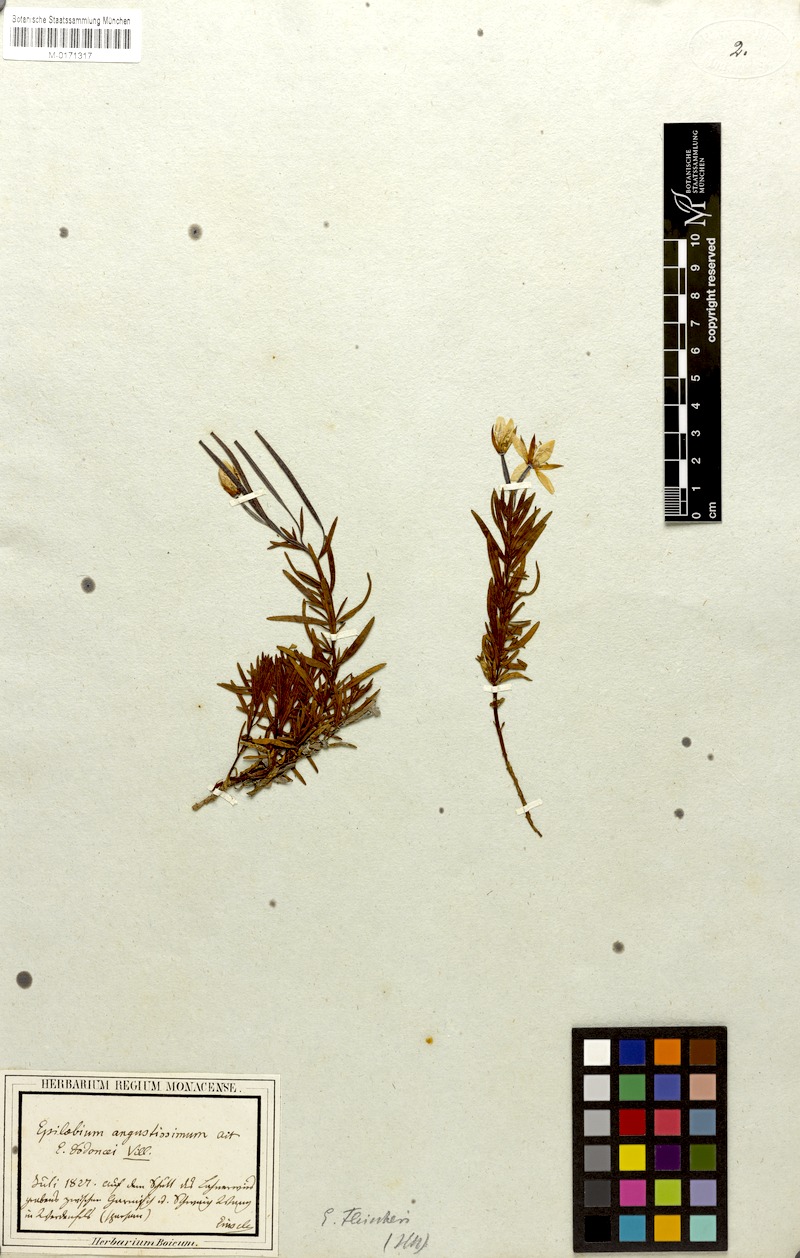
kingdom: Plantae
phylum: Tracheophyta
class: Magnoliopsida
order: Myrtales
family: Onagraceae
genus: Chamaenerion
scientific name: Chamaenerion fleischeri
